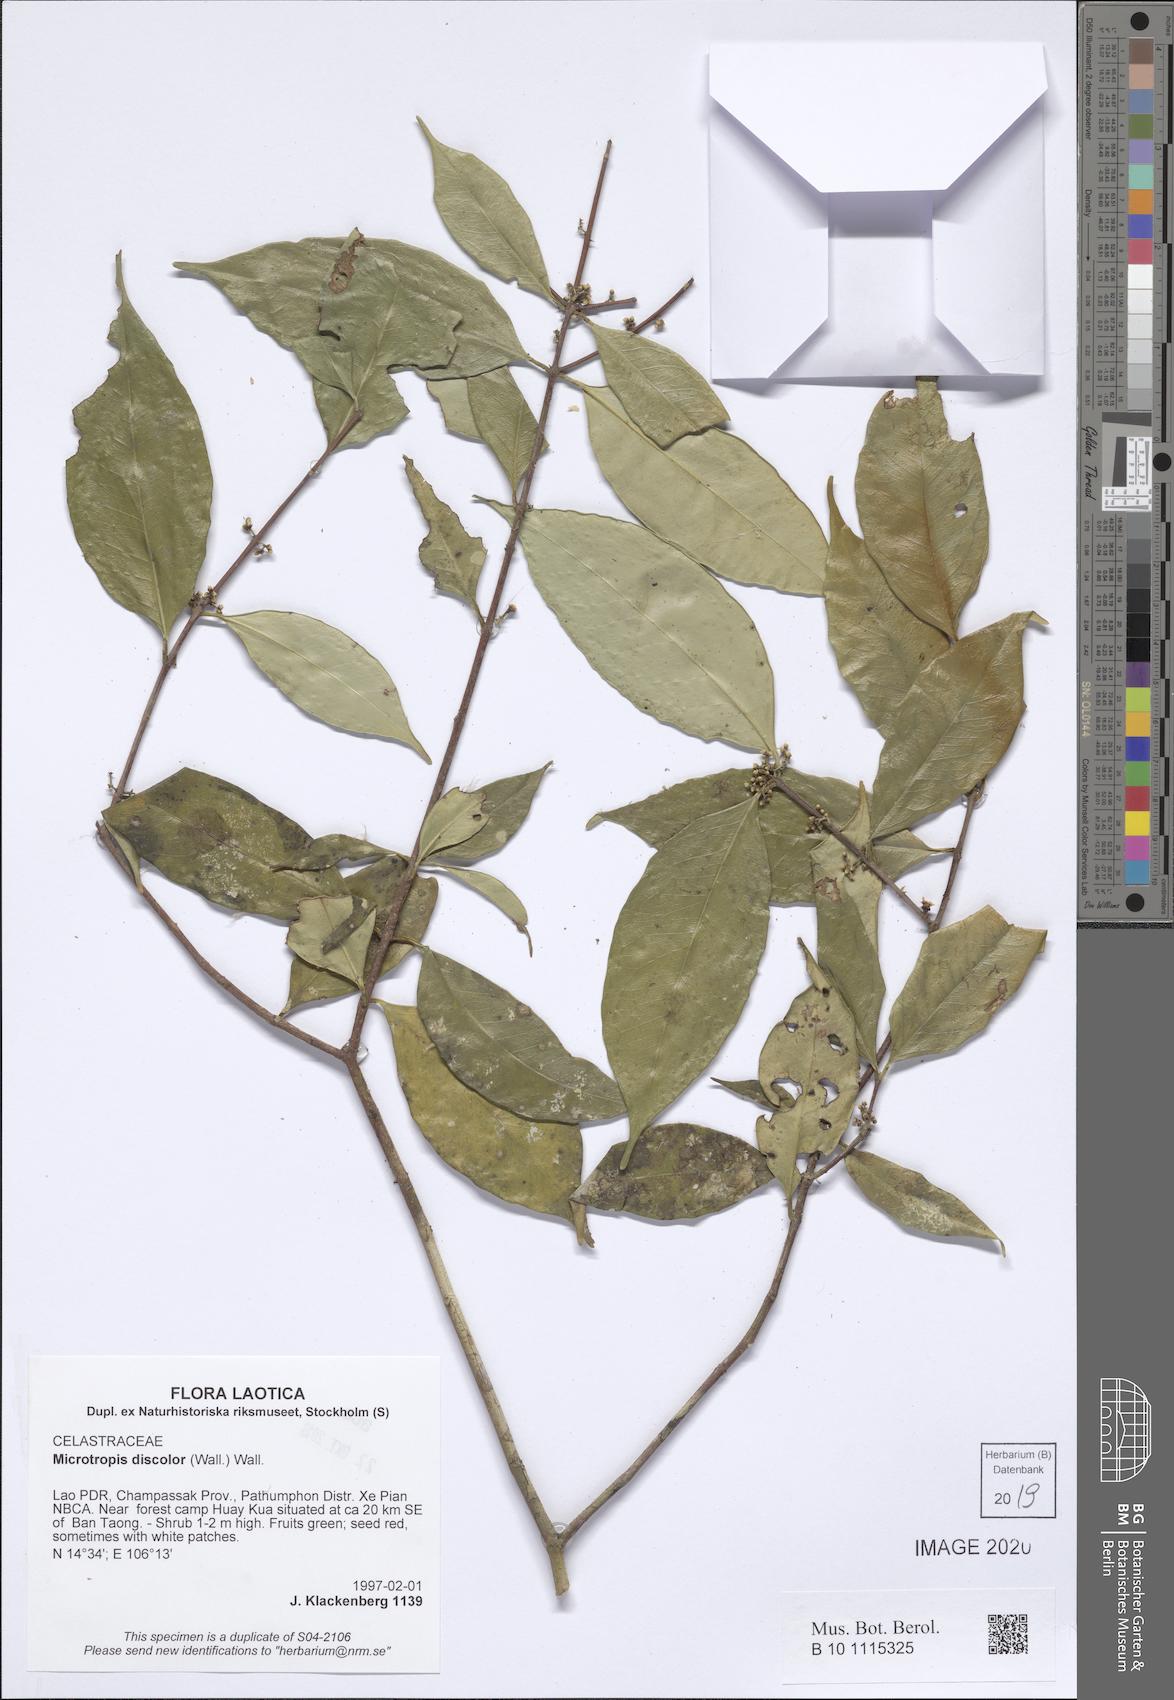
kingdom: Plantae
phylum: Tracheophyta
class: Magnoliopsida
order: Celastrales
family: Celastraceae
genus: Microtropis
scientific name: Microtropis discolor
